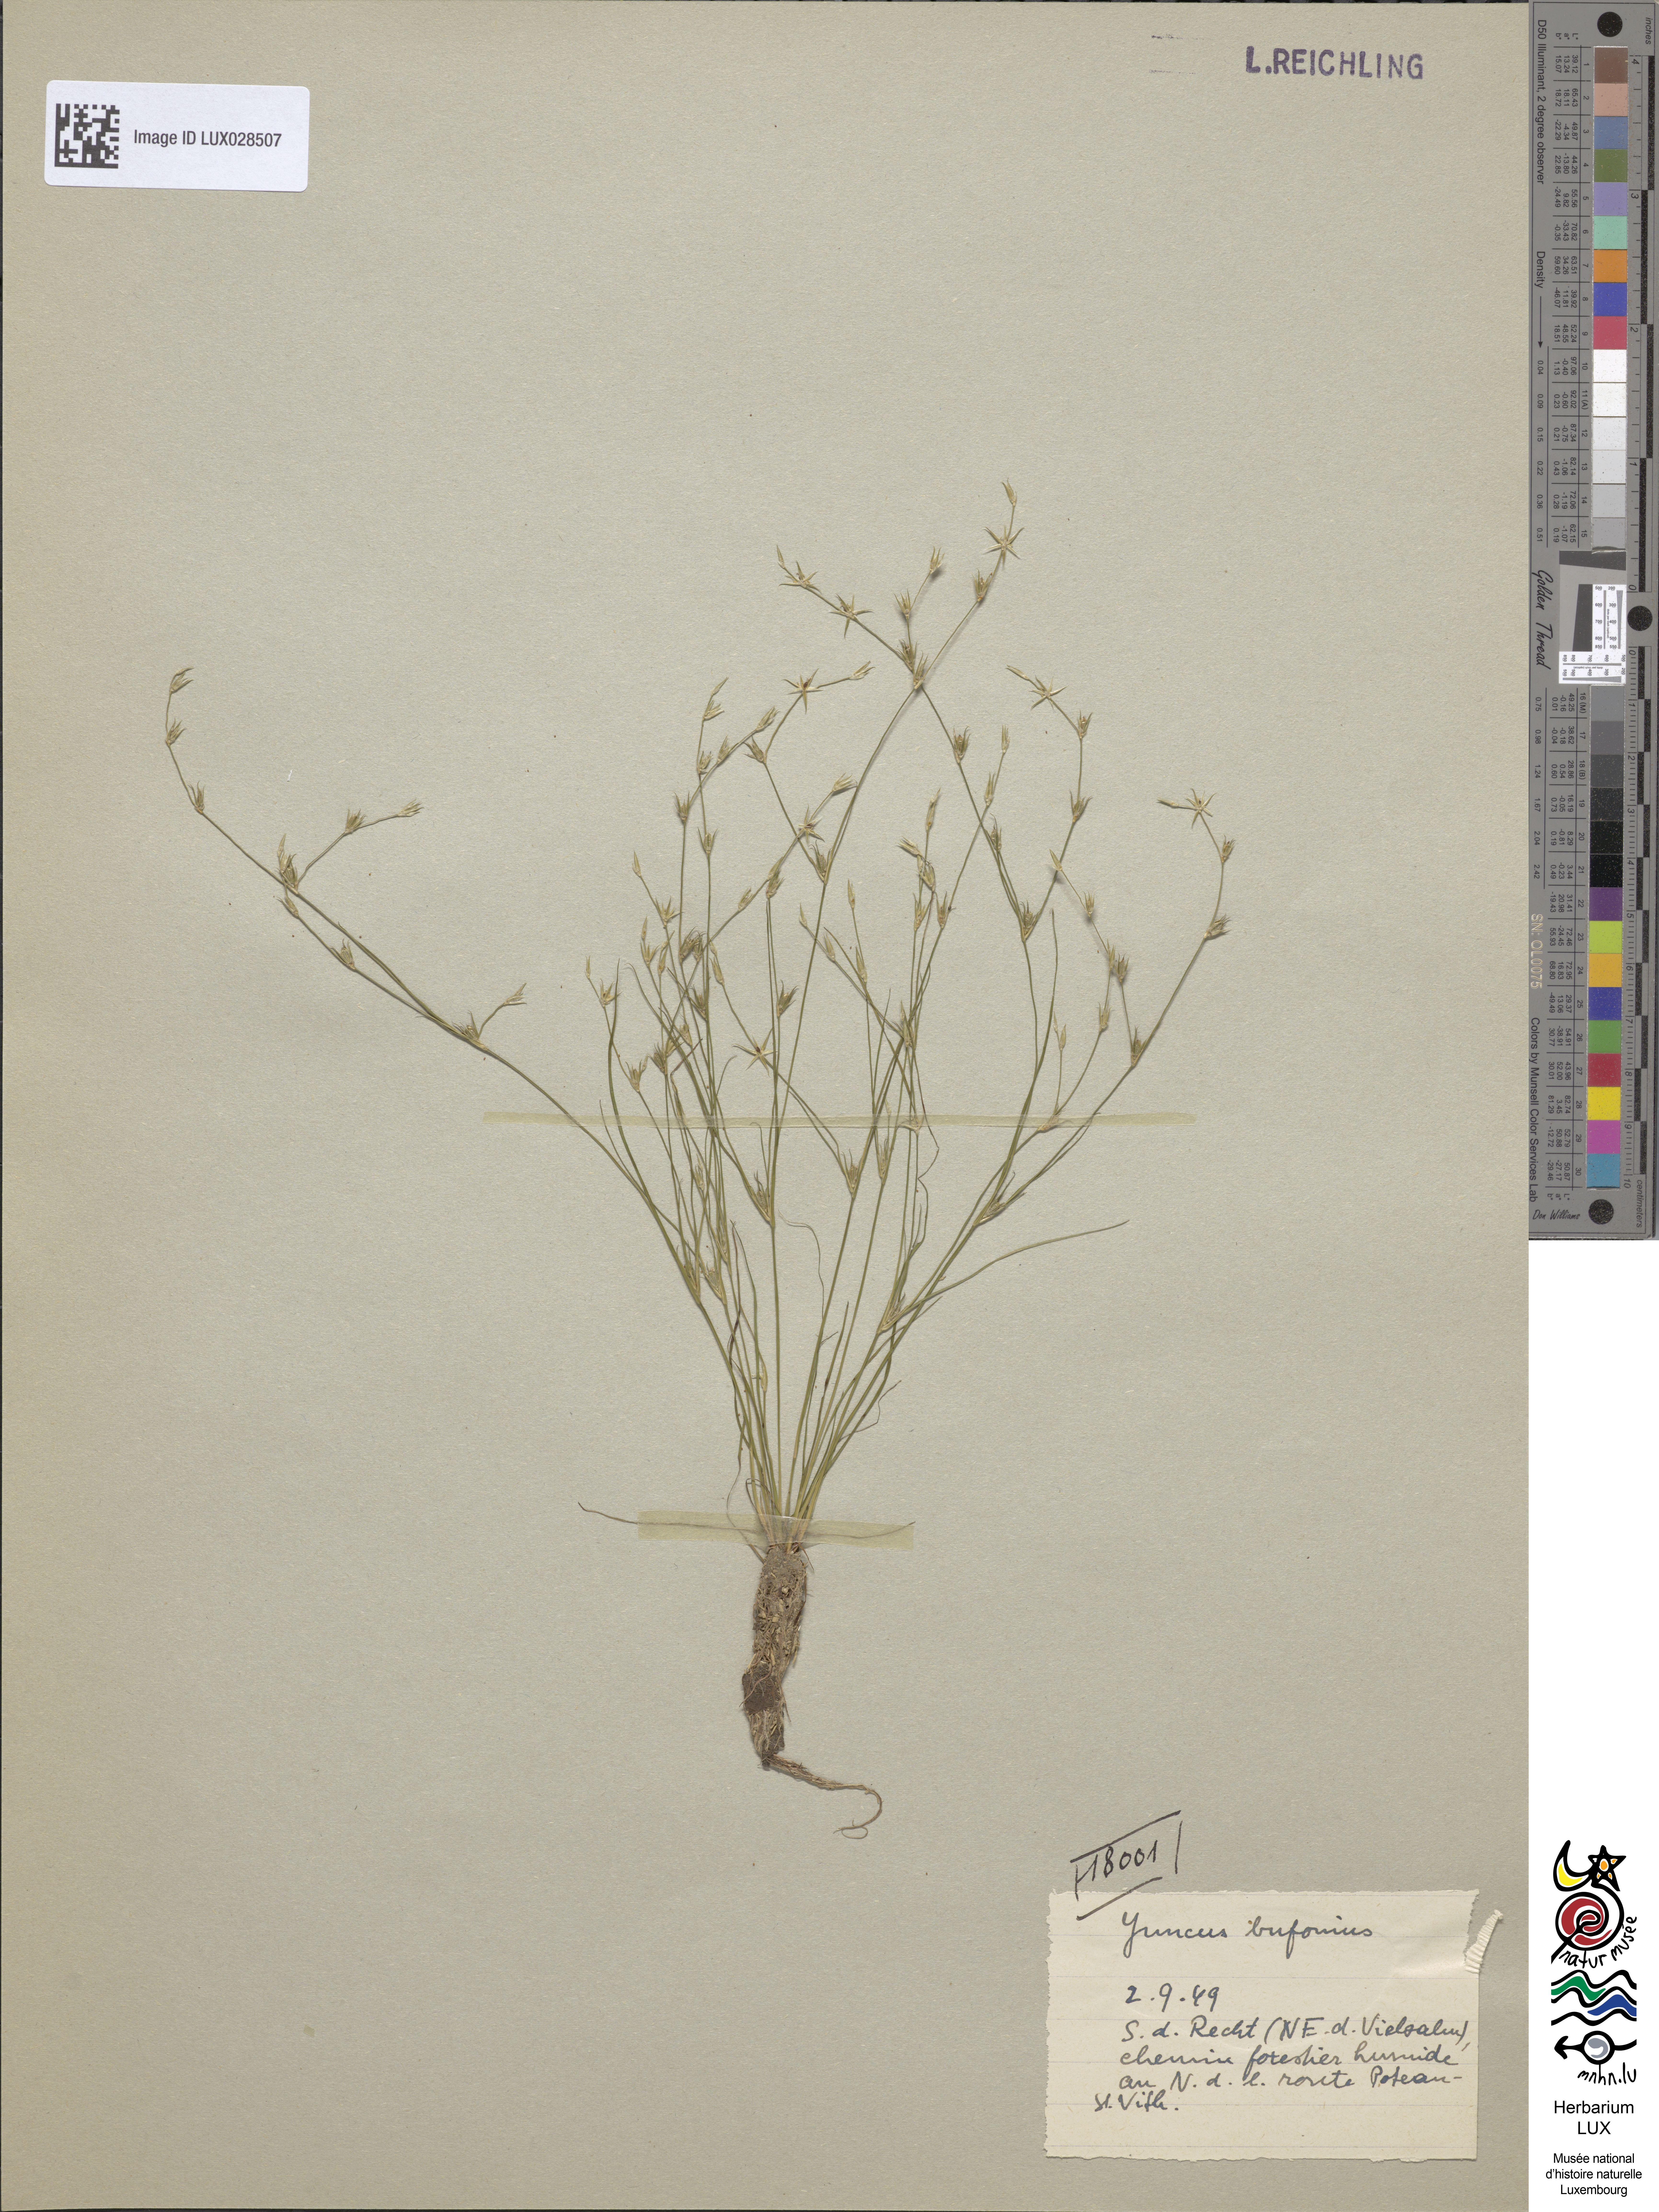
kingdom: Plantae
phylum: Tracheophyta
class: Liliopsida
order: Poales
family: Juncaceae
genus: Juncus
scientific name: Juncus bufonius
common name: Toad rush
